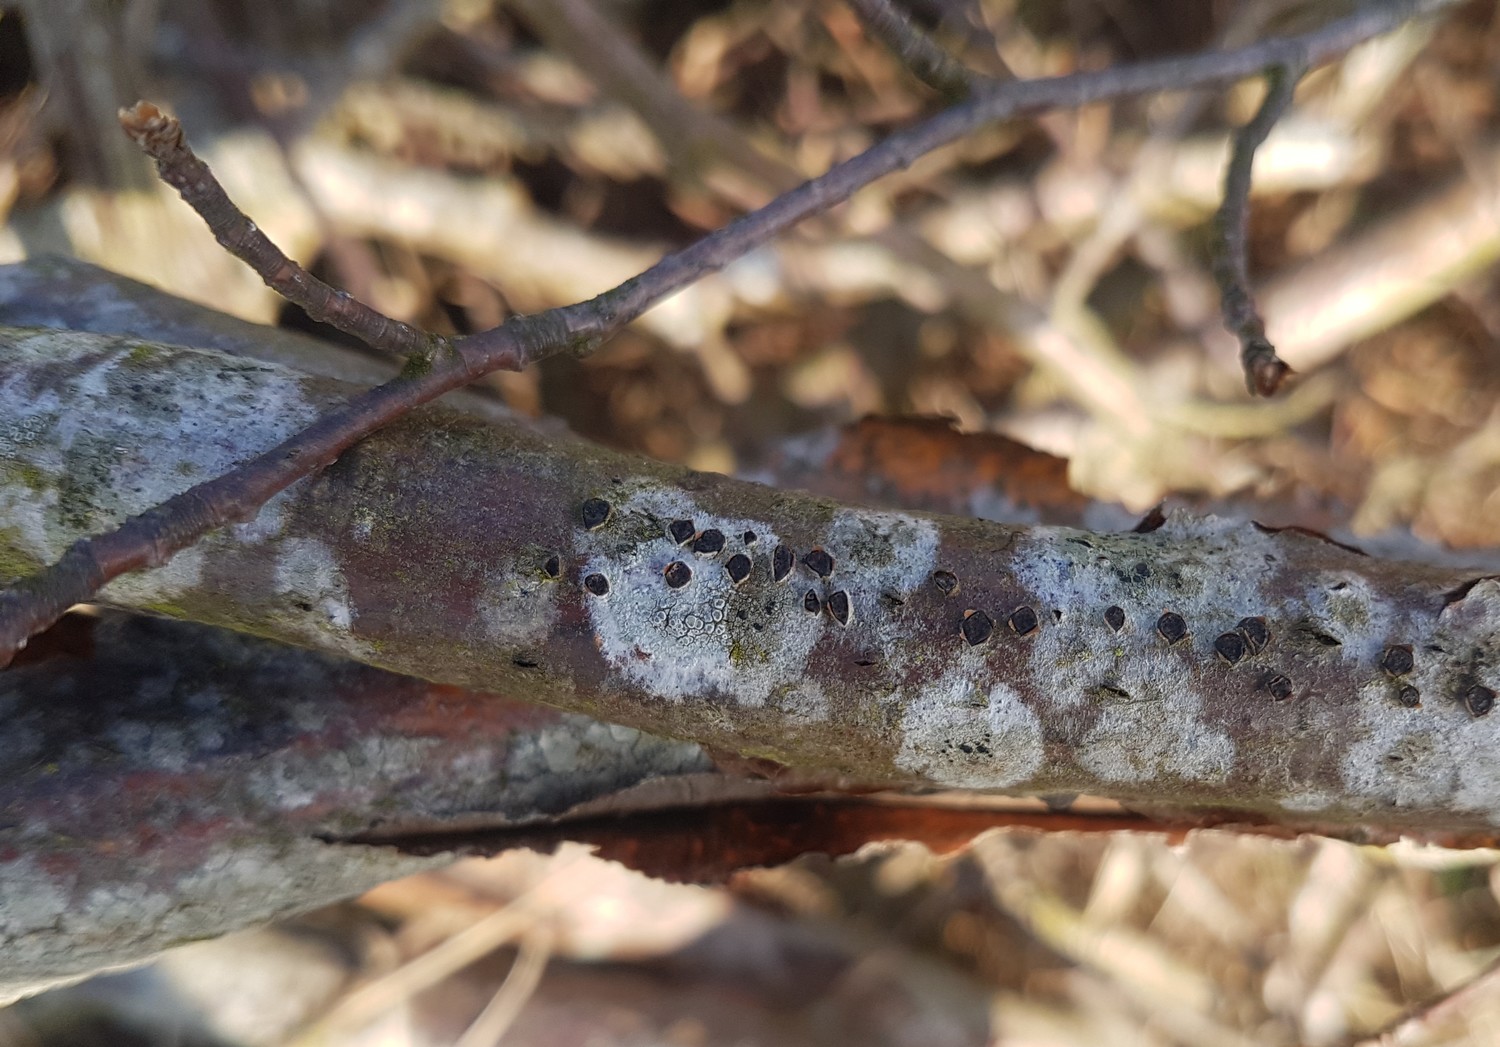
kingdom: Fungi
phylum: Ascomycota
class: Sordariomycetes
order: Xylariales
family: Diatrypaceae
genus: Diatrype
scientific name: Diatrype disciformis
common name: kant-kulskorpe
